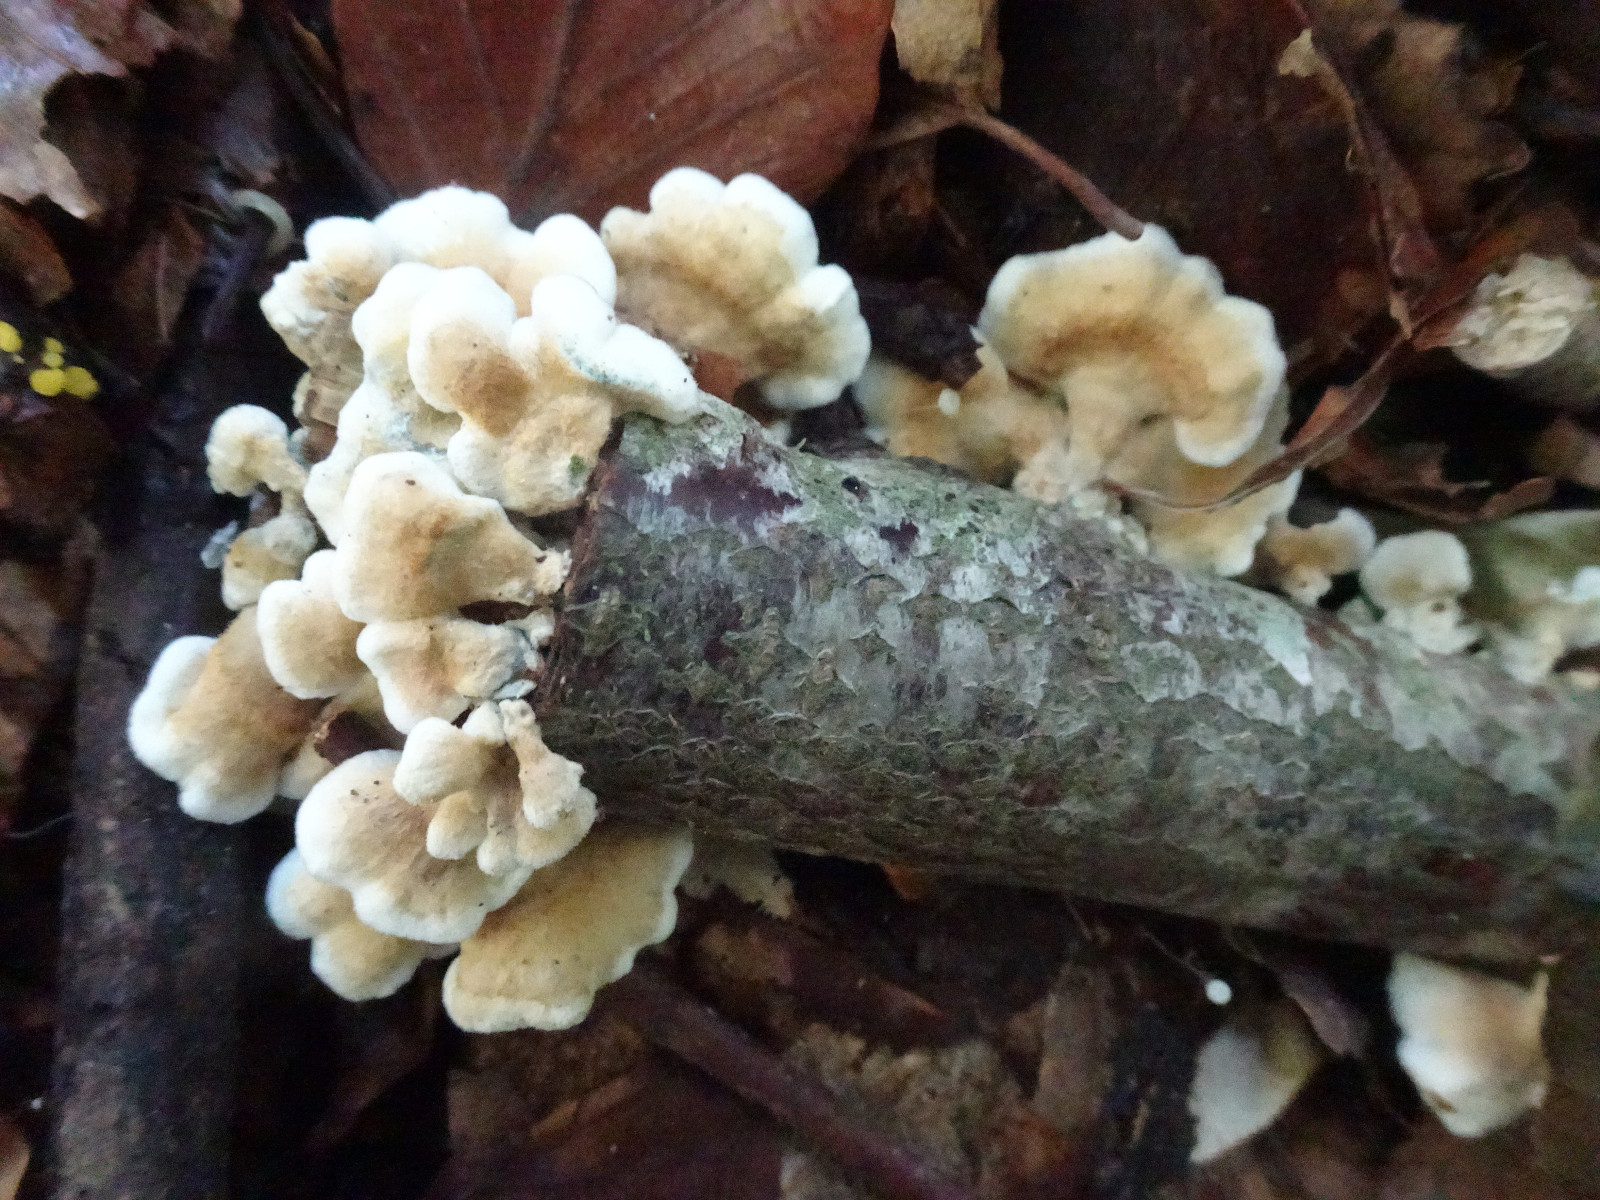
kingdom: Fungi
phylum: Basidiomycota
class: Agaricomycetes
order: Amylocorticiales
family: Amylocorticiaceae
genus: Plicaturopsis
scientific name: Plicaturopsis crispa
